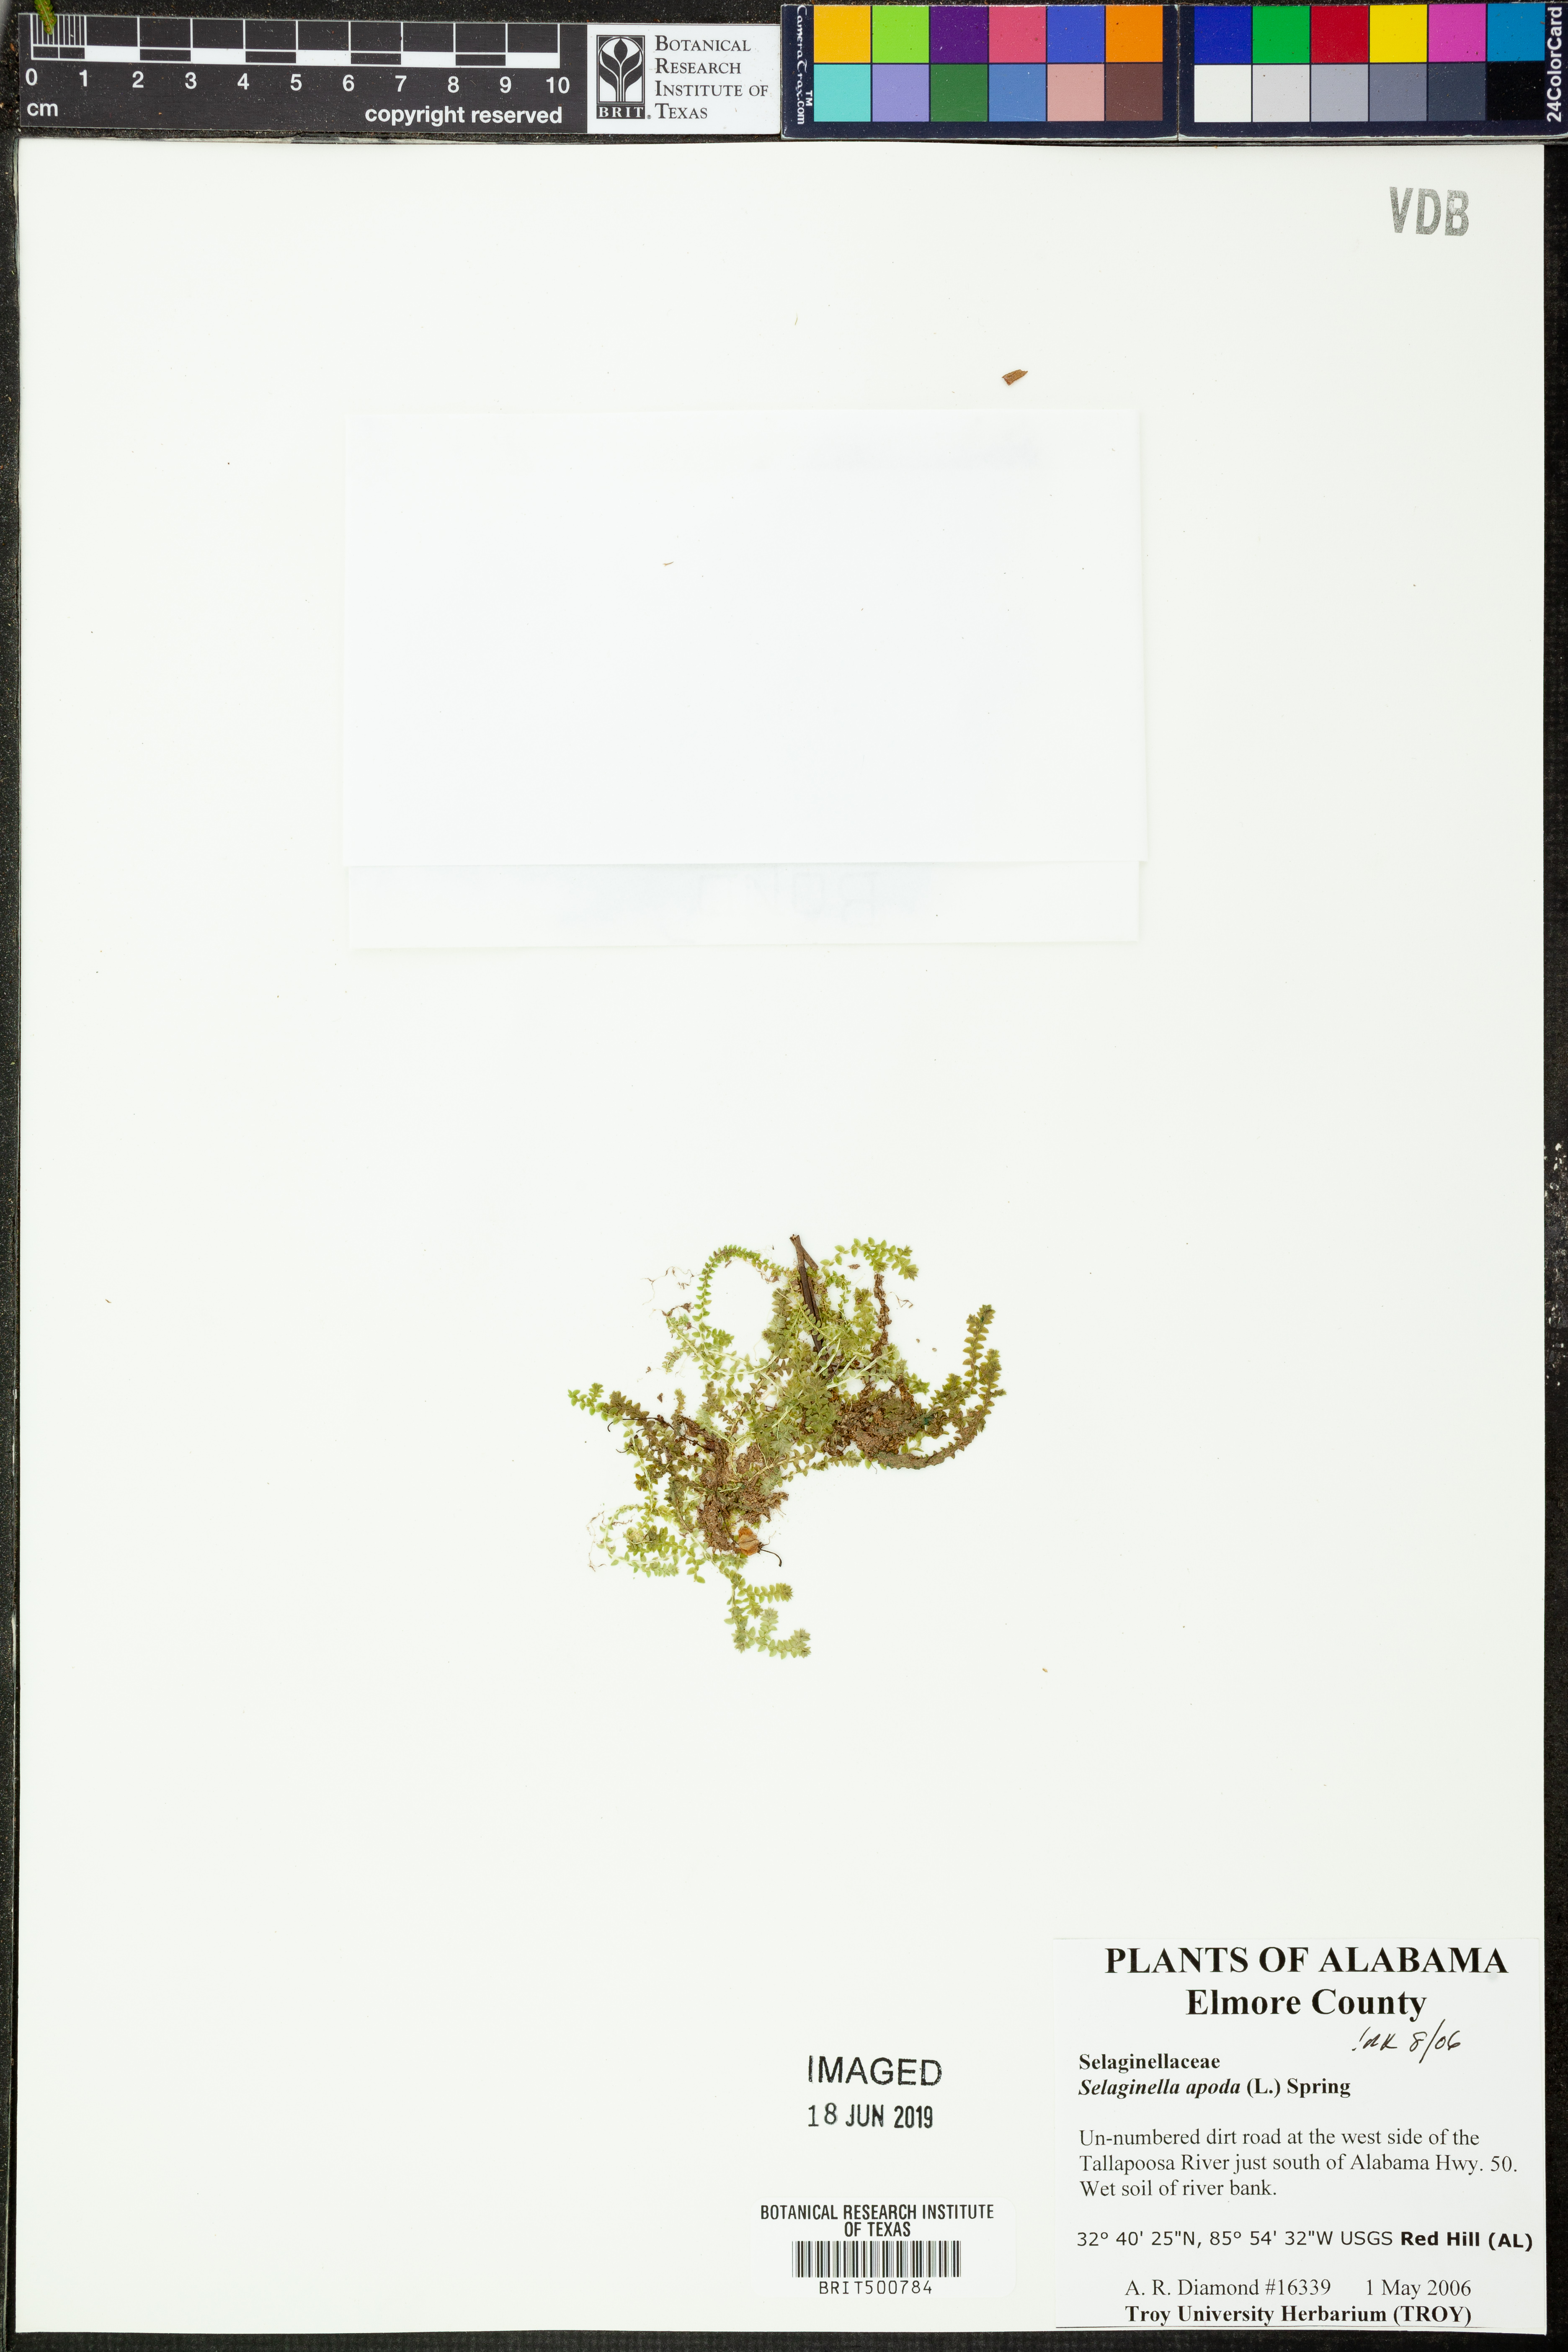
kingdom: Plantae
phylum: Tracheophyta
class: Lycopodiopsida
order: Selaginellales
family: Selaginellaceae
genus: Selaginella
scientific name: Selaginella apoda
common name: Creeping spikemoss
